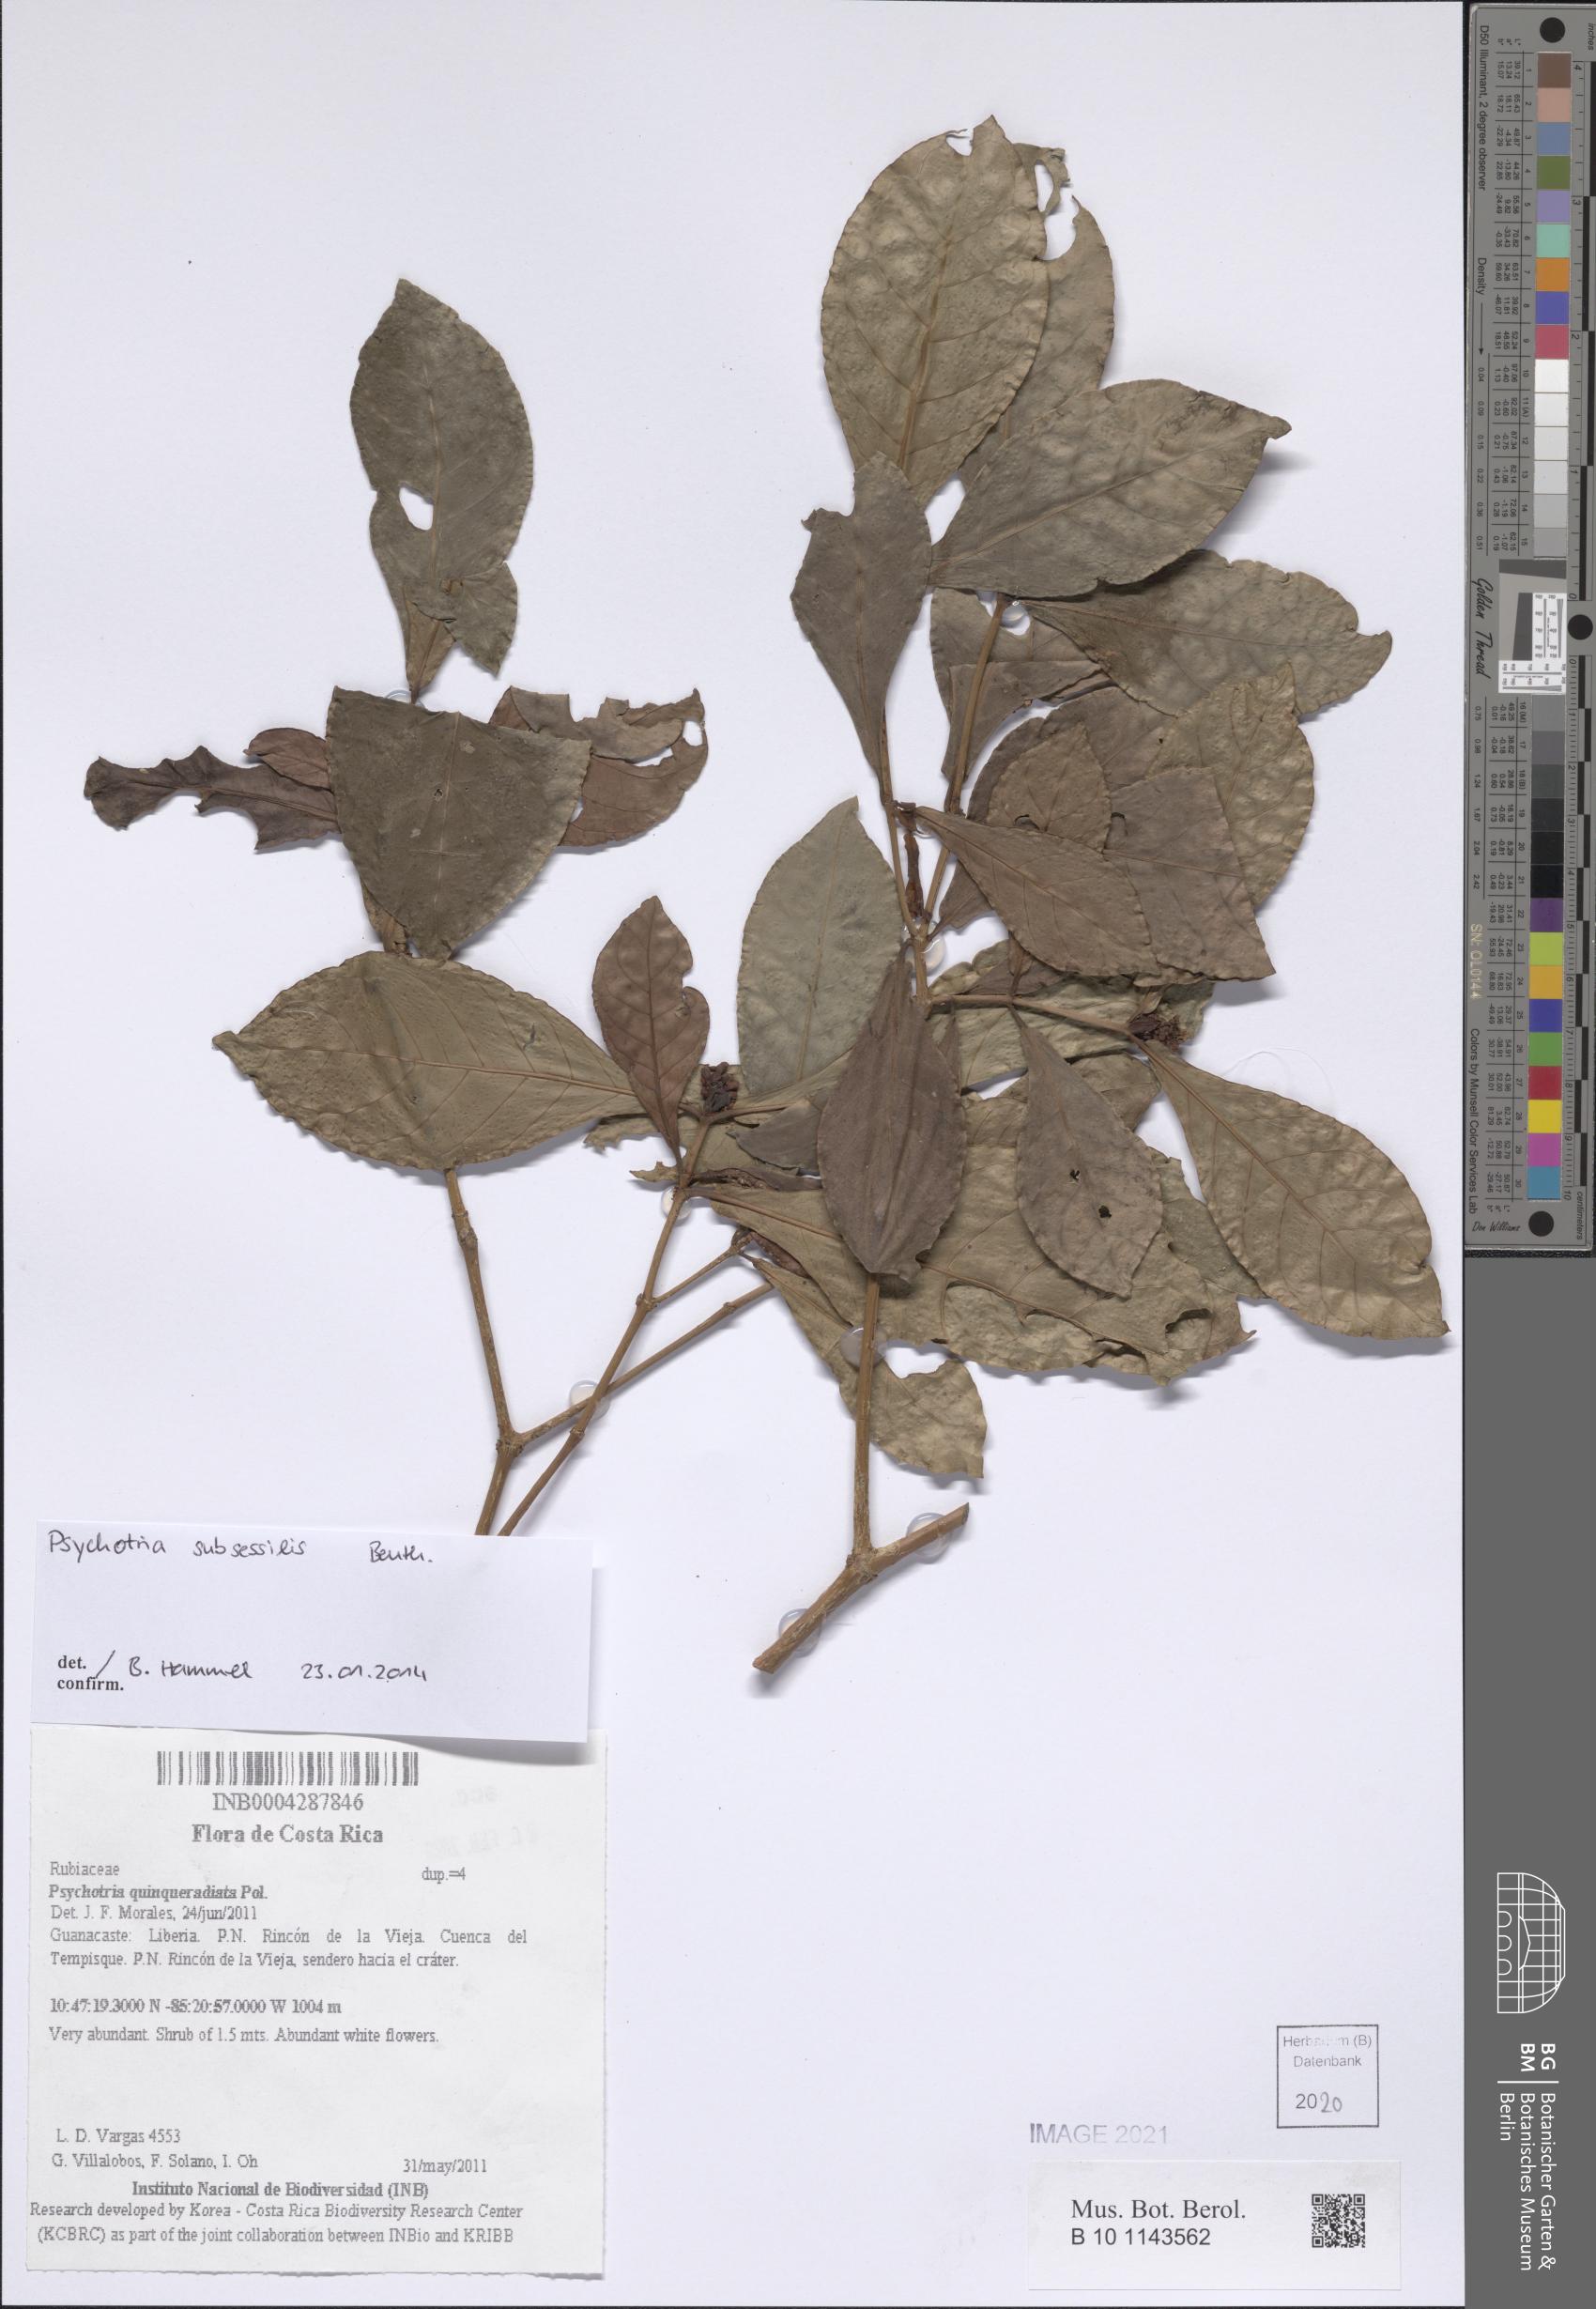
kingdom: Plantae
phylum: Tracheophyta
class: Magnoliopsida
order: Gentianales
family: Rubiaceae
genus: Psychotria
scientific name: Psychotria subsessilis
